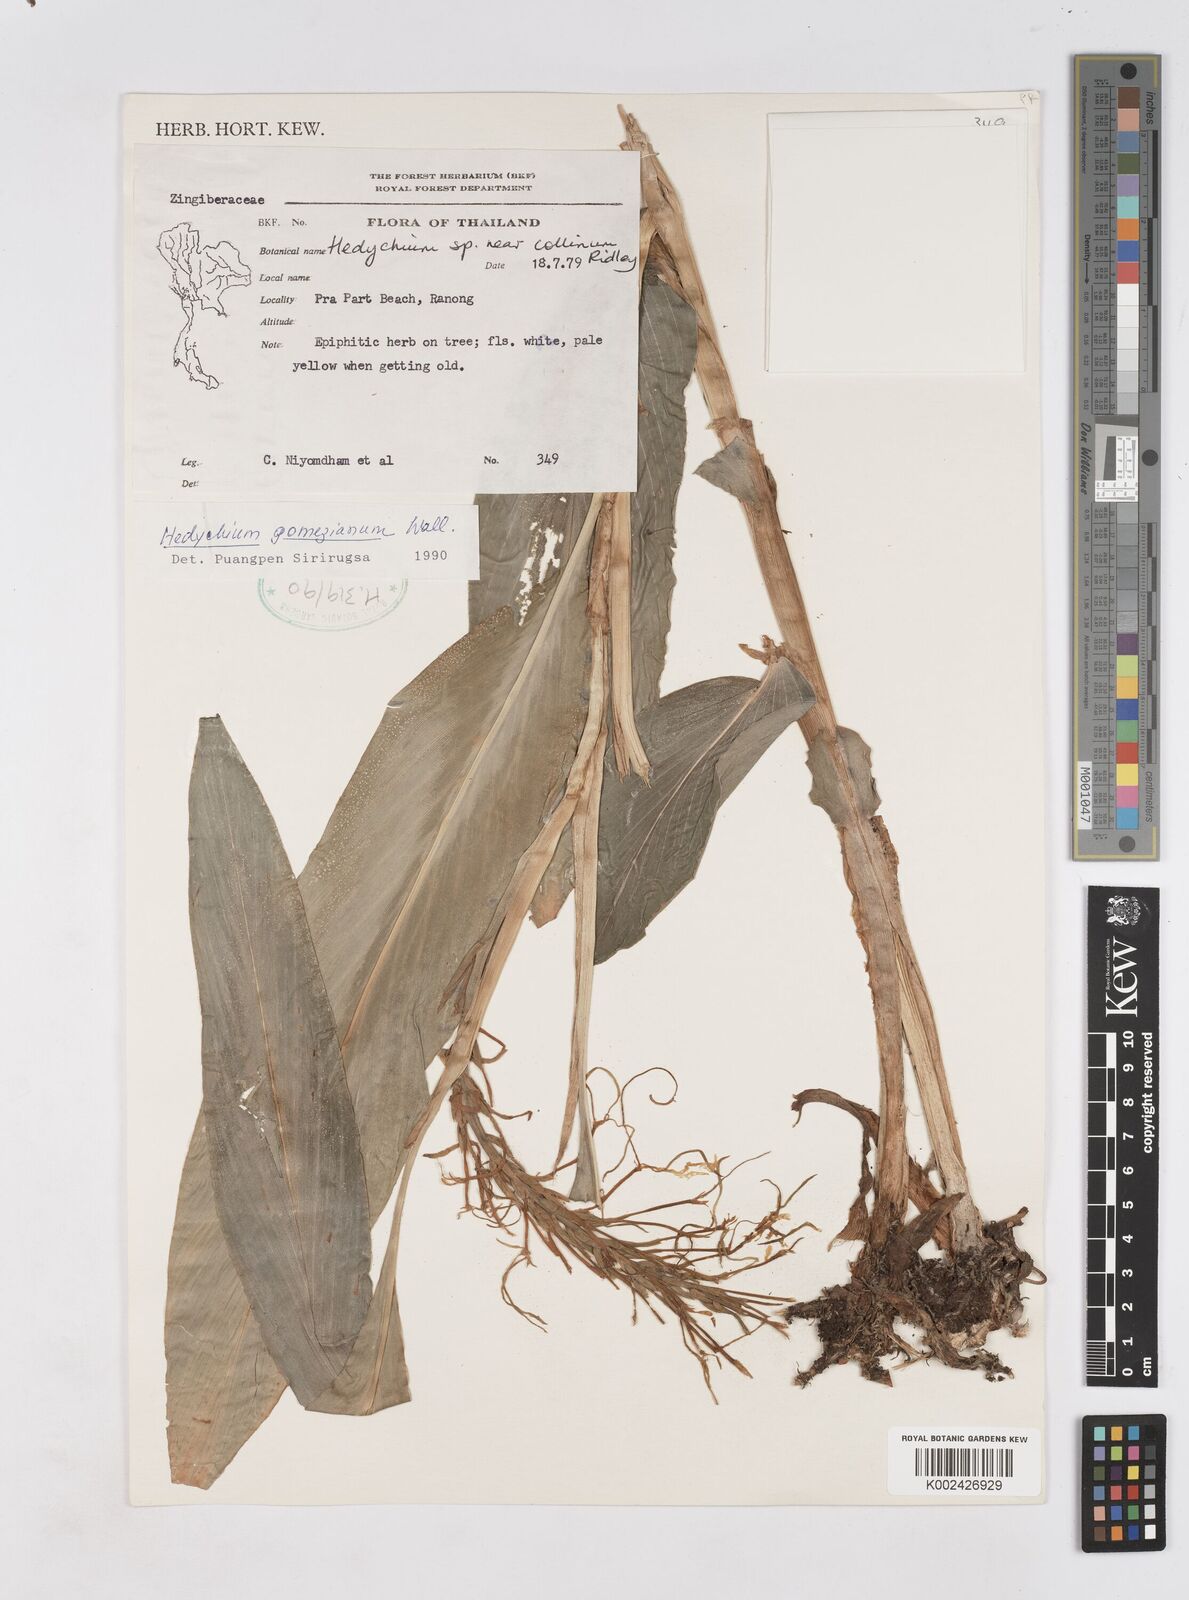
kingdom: Plantae
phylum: Tracheophyta
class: Liliopsida
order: Zingiberales
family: Zingiberaceae
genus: Hedychium
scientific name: Hedychium gomezianum
